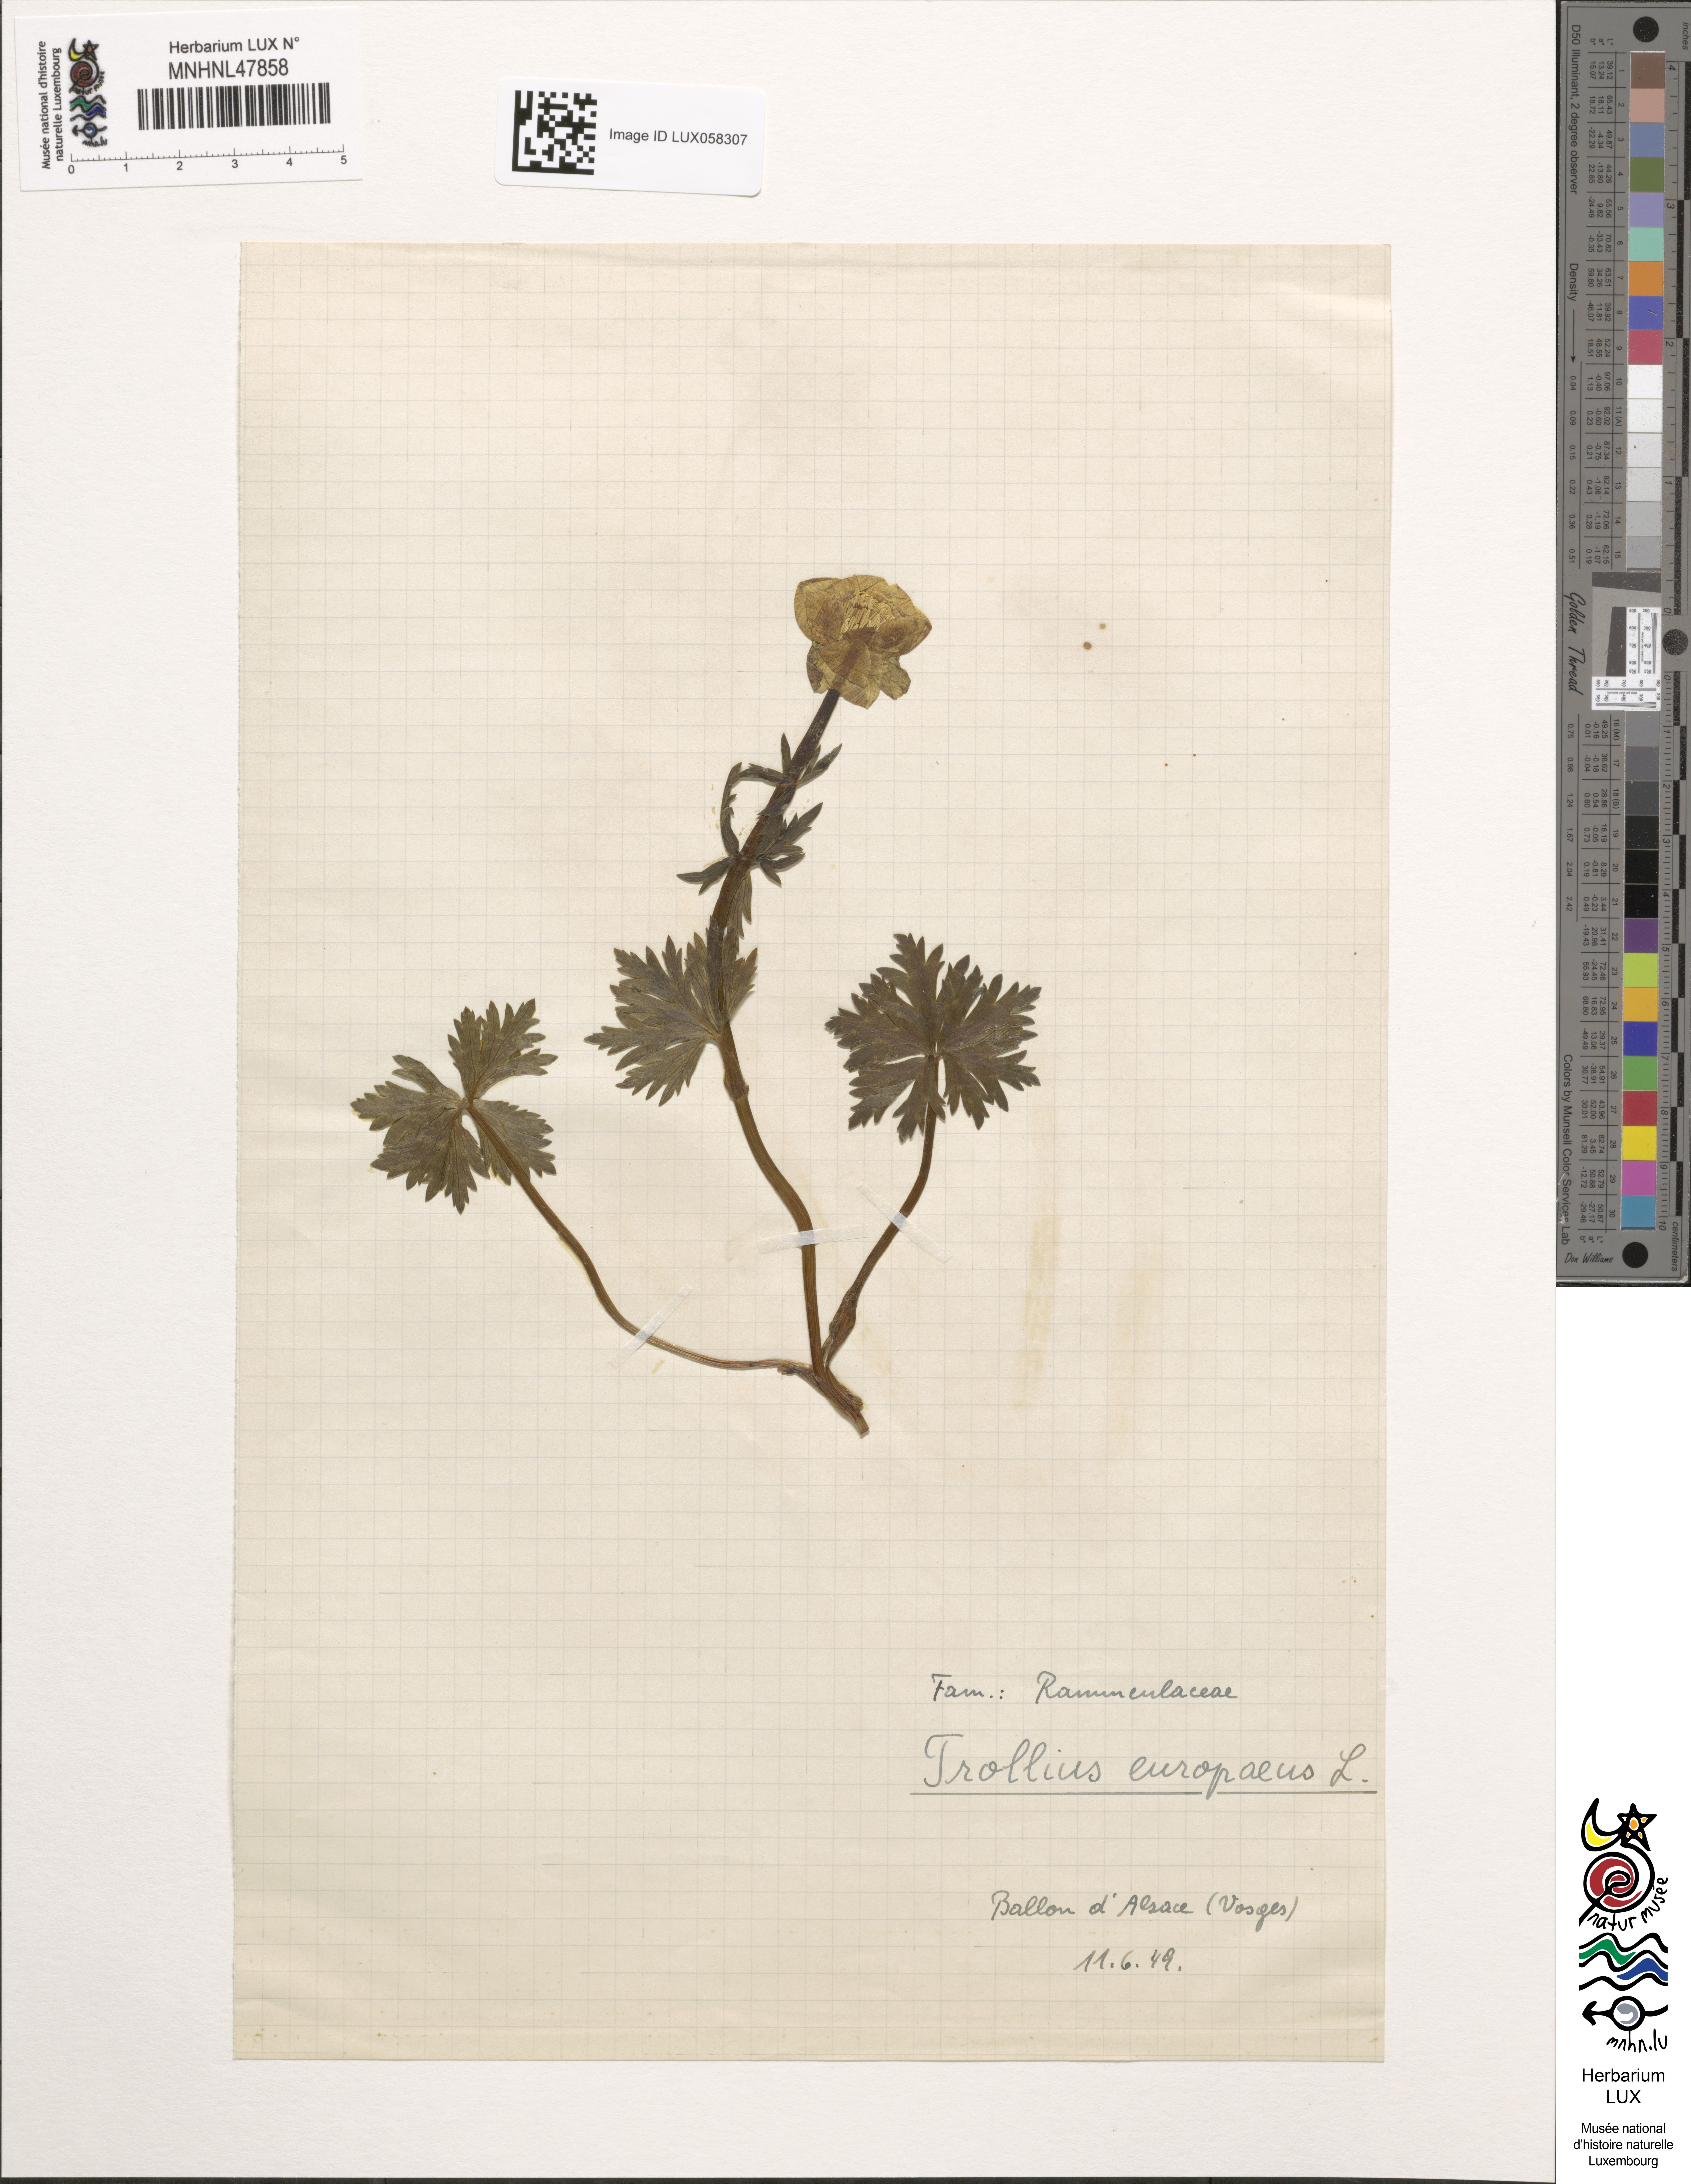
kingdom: Plantae
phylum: Tracheophyta
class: Magnoliopsida
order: Ranunculales
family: Ranunculaceae
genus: Trollius
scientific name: Trollius europaeus
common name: European globeflower
